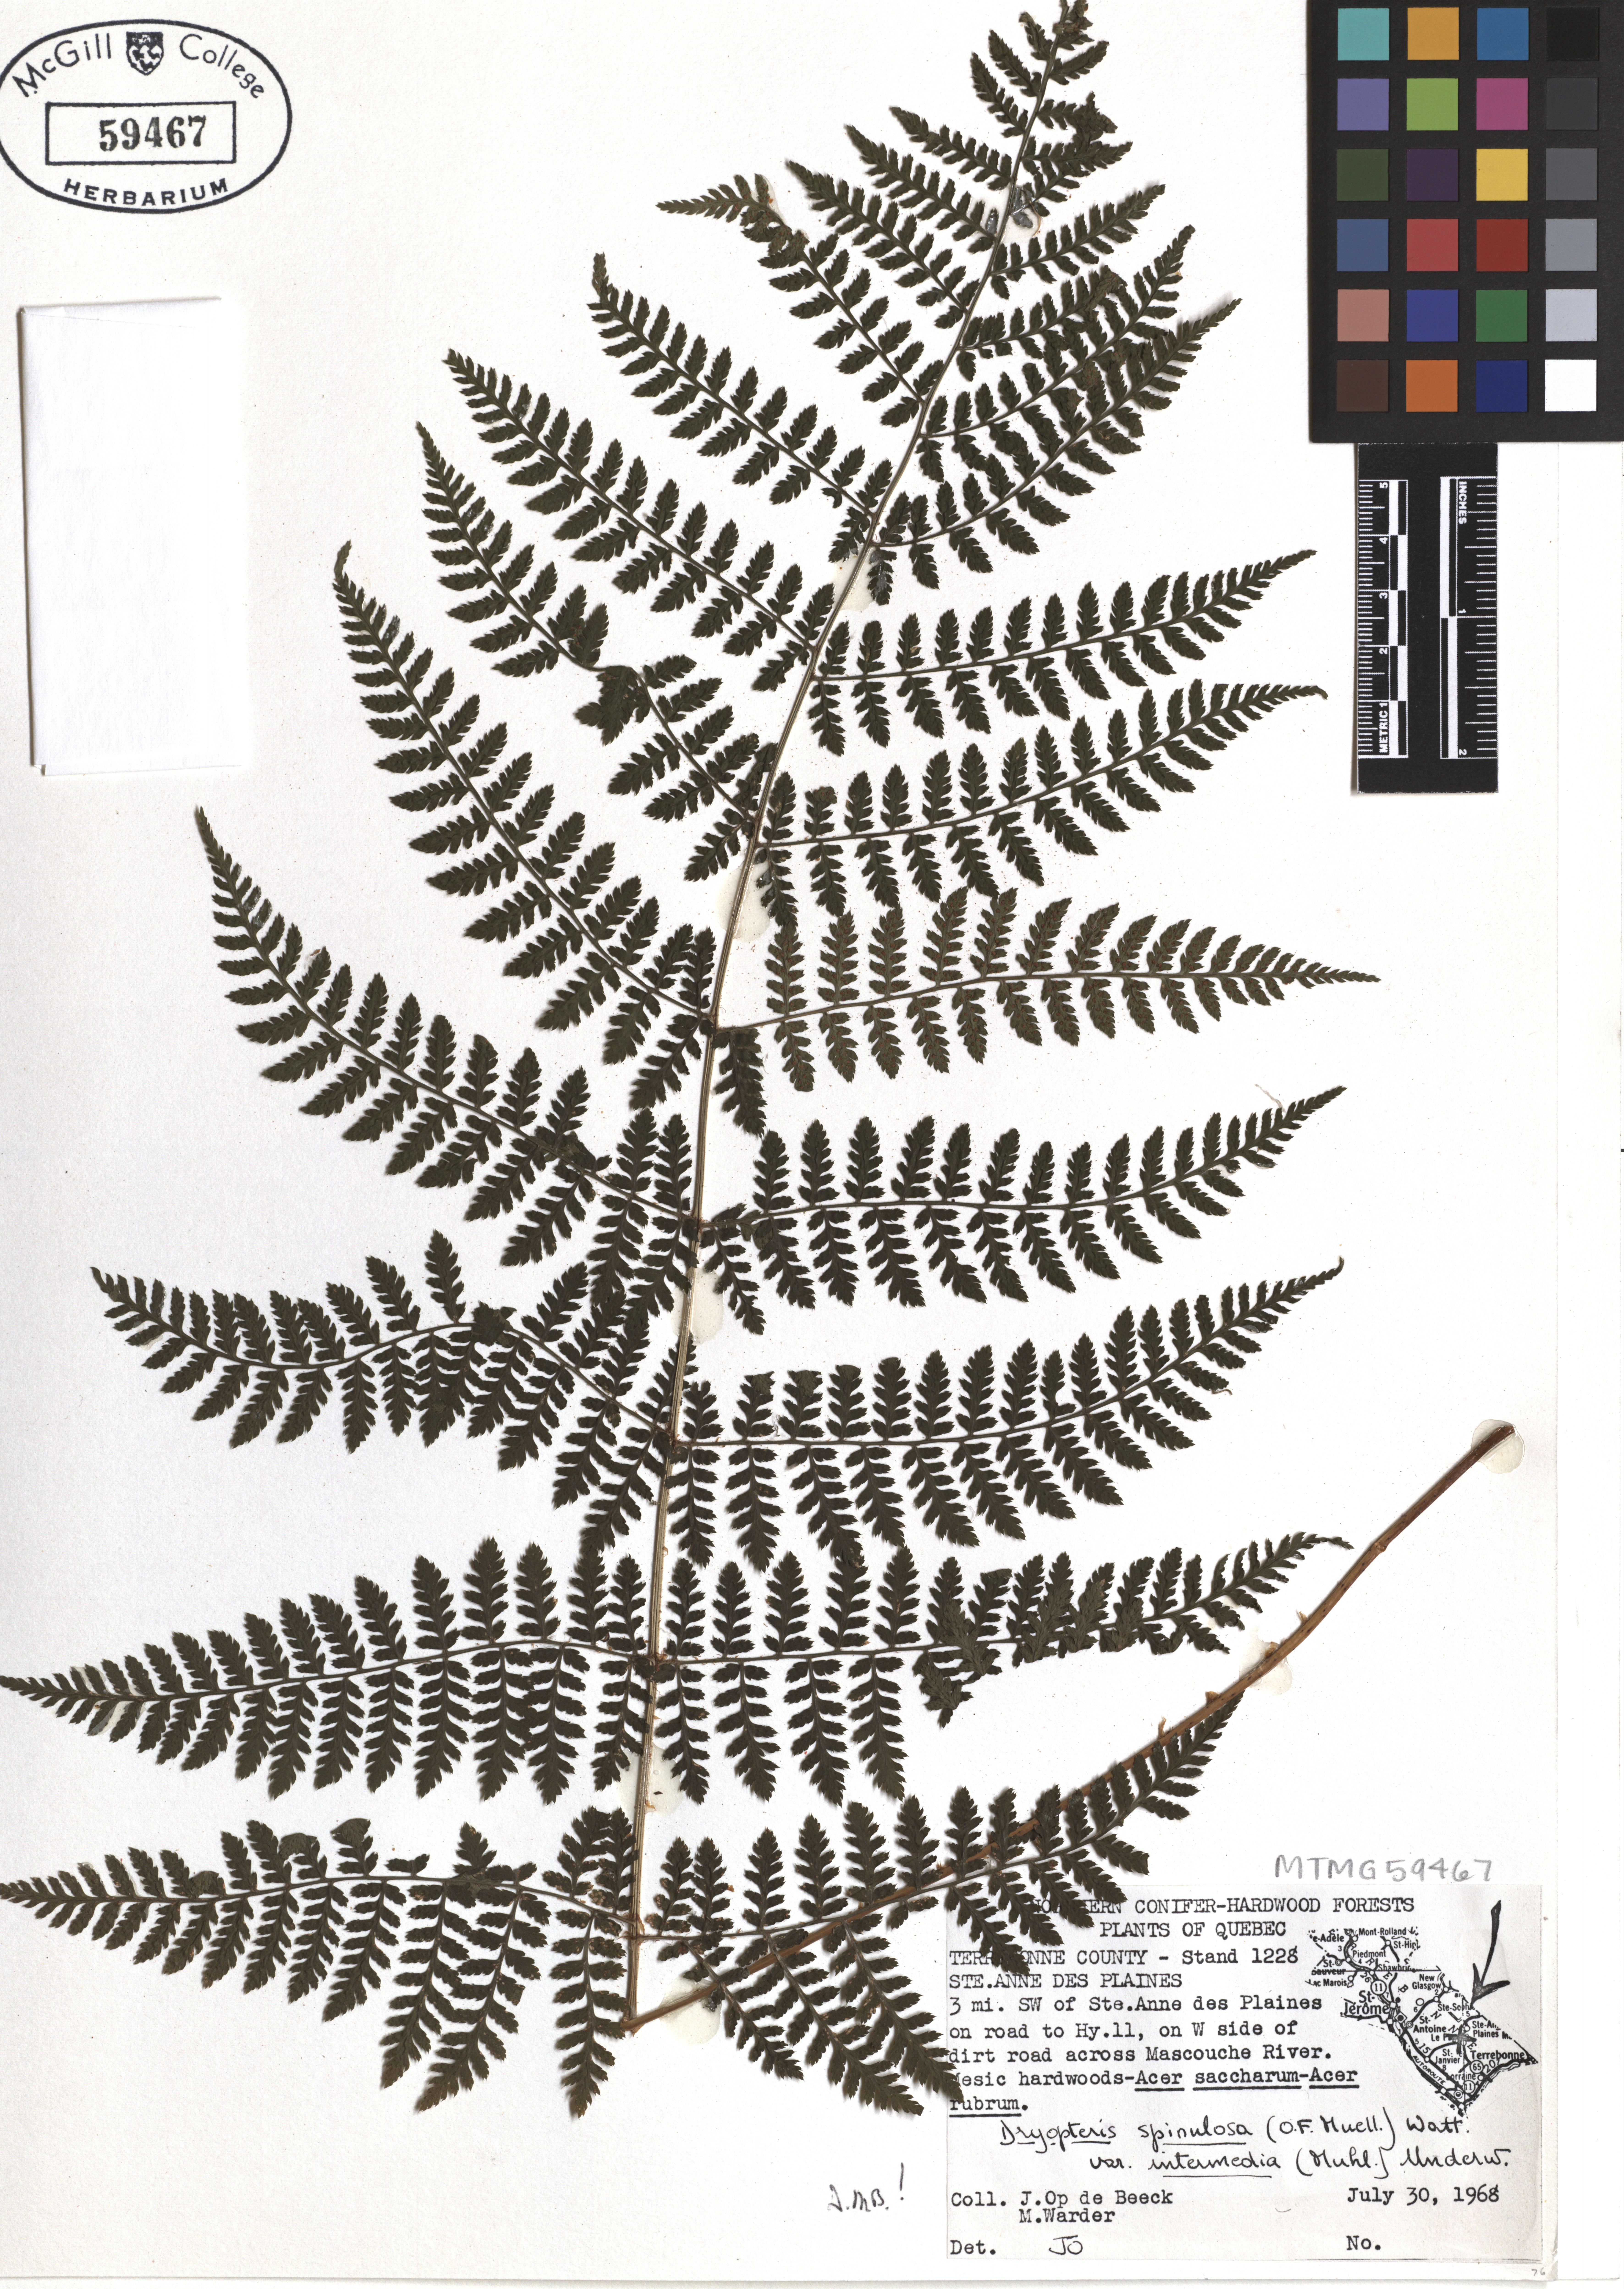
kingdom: Plantae
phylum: Tracheophyta
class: Polypodiopsida
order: Polypodiales
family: Dryopteridaceae
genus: Dryopteris
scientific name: Dryopteris intermedia
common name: Evergreen wood fern
